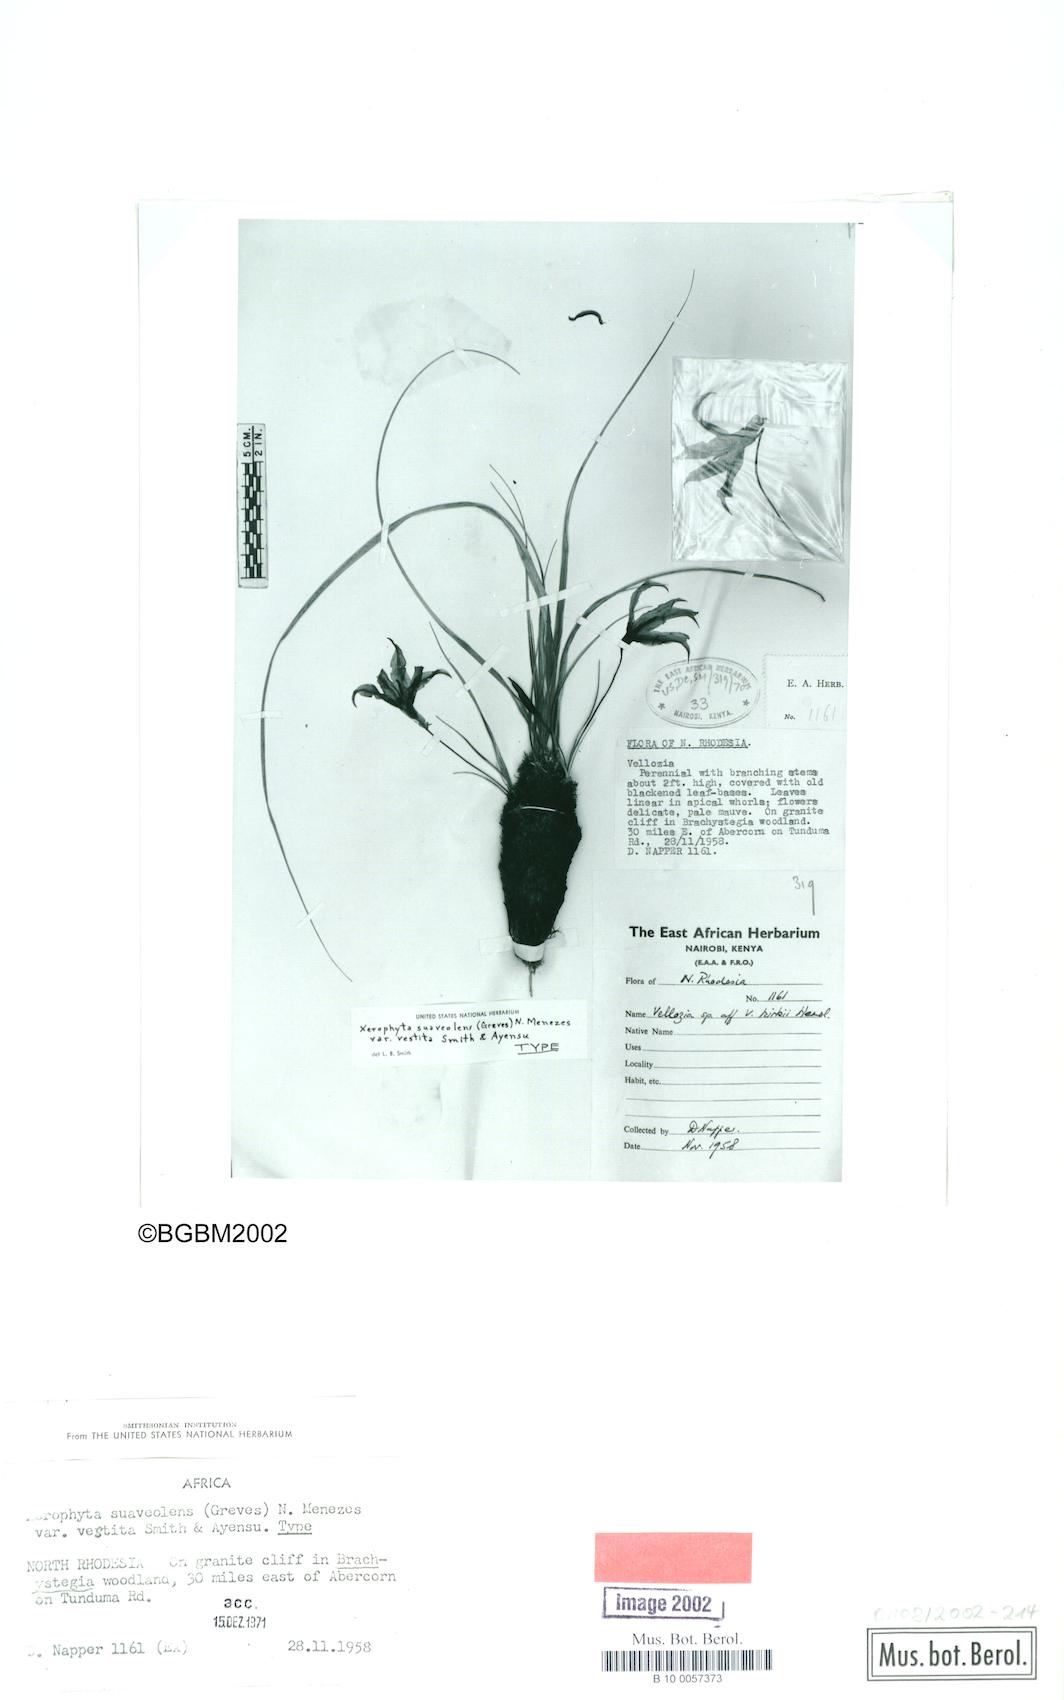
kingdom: Plantae
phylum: Tracheophyta
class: Liliopsida
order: Pandanales
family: Velloziaceae
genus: Xerophyta
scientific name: Xerophyta suaveolens
